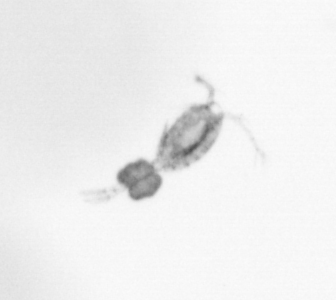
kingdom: Animalia
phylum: Arthropoda
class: Copepoda
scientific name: Copepoda
